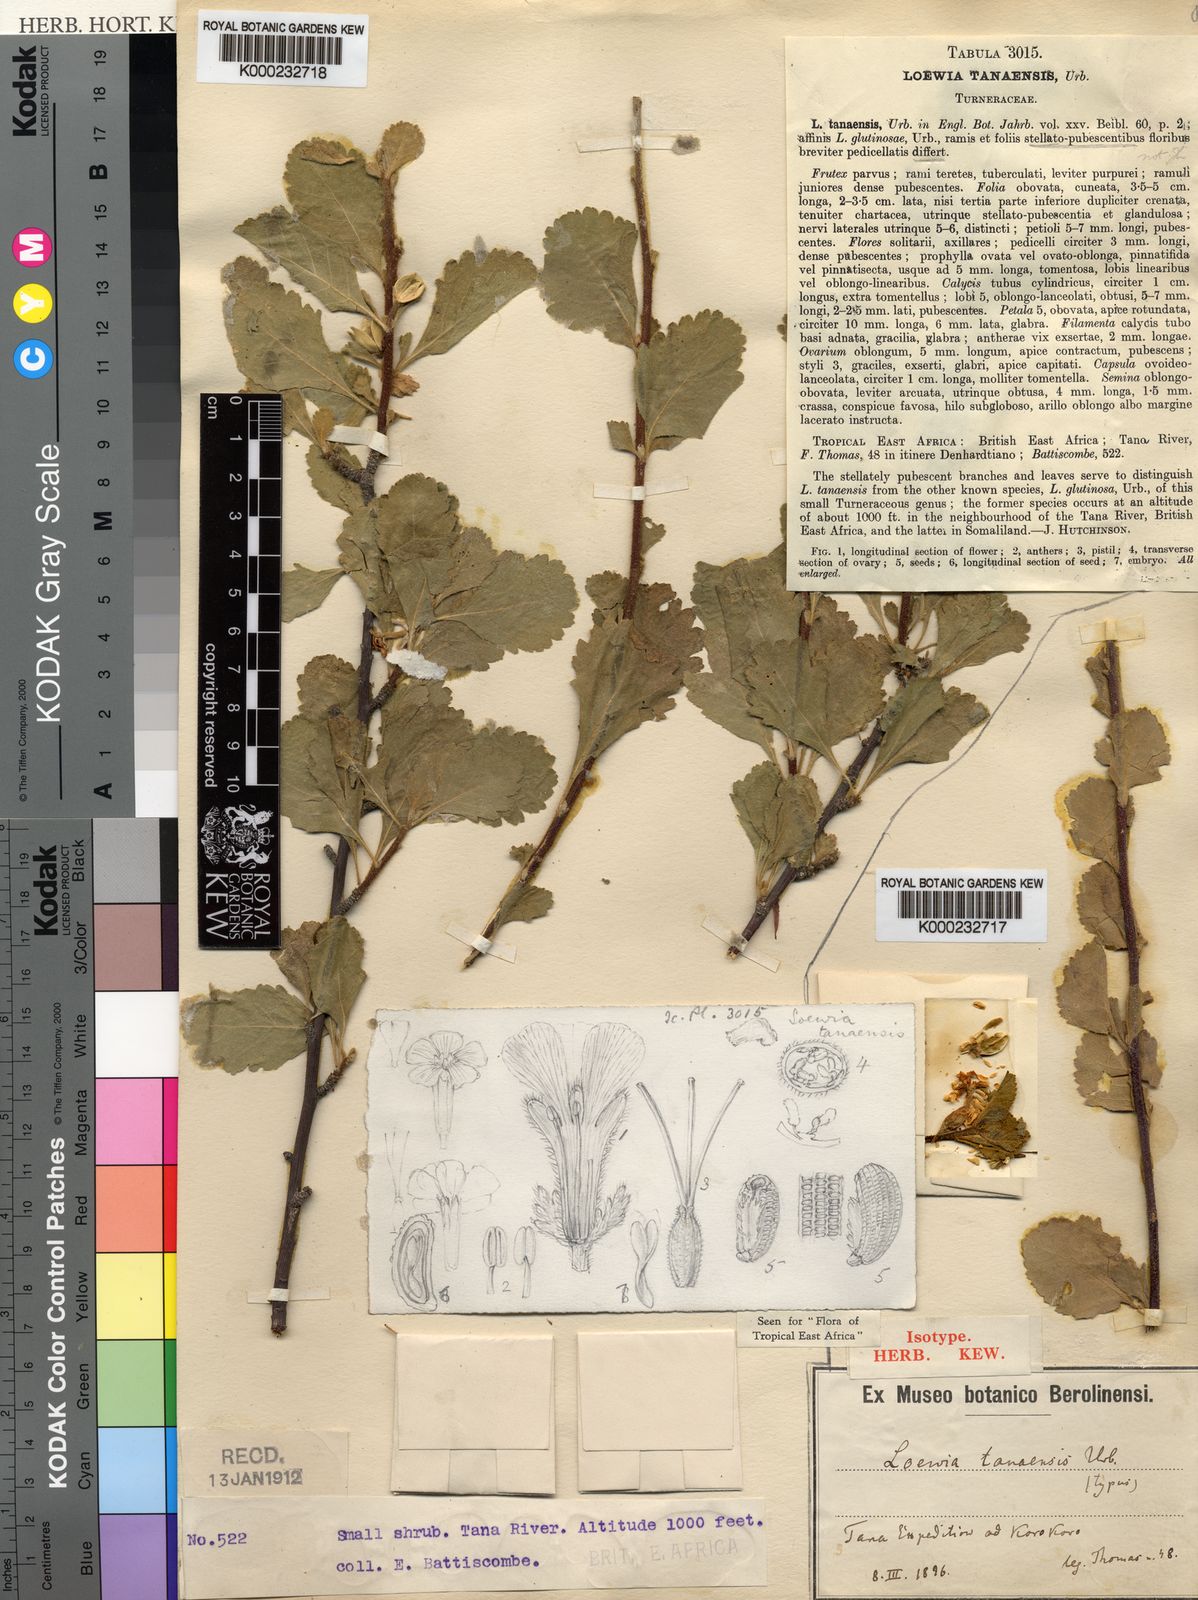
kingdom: Plantae
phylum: Tracheophyta
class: Magnoliopsida
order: Malpighiales
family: Turneraceae
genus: Loewia
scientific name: Loewia tanaensis
